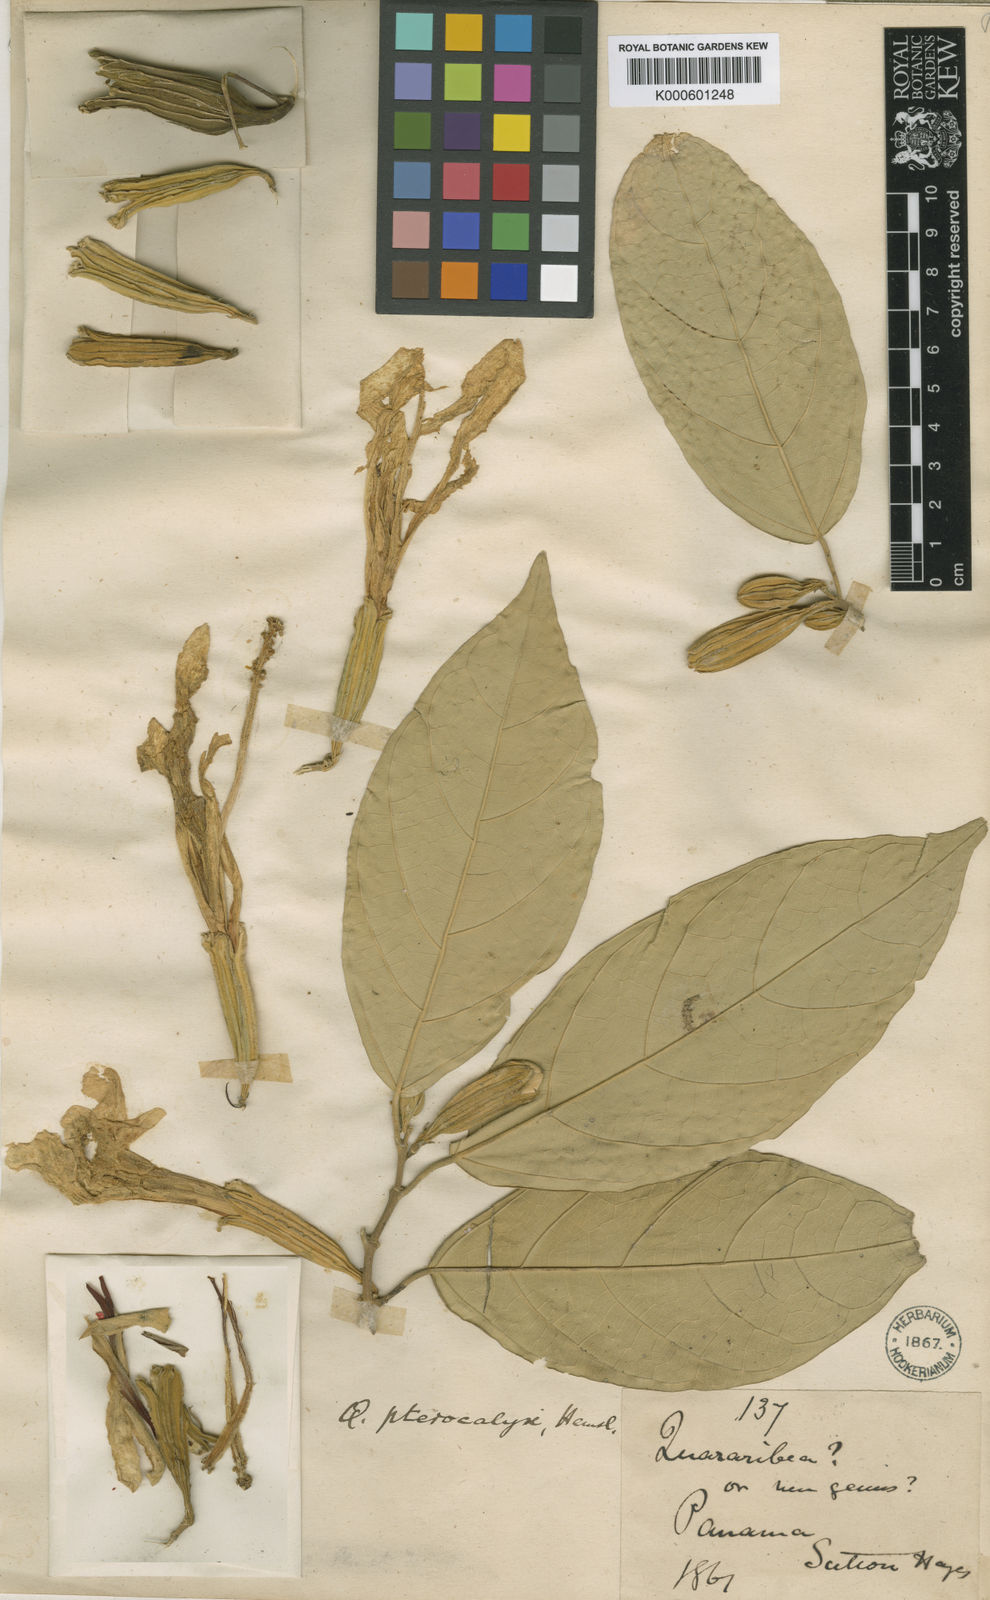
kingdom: Plantae
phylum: Tracheophyta
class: Magnoliopsida
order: Malvales
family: Malvaceae
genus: Quararibea
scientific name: Quararibea pterocalyx
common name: Wild palm
